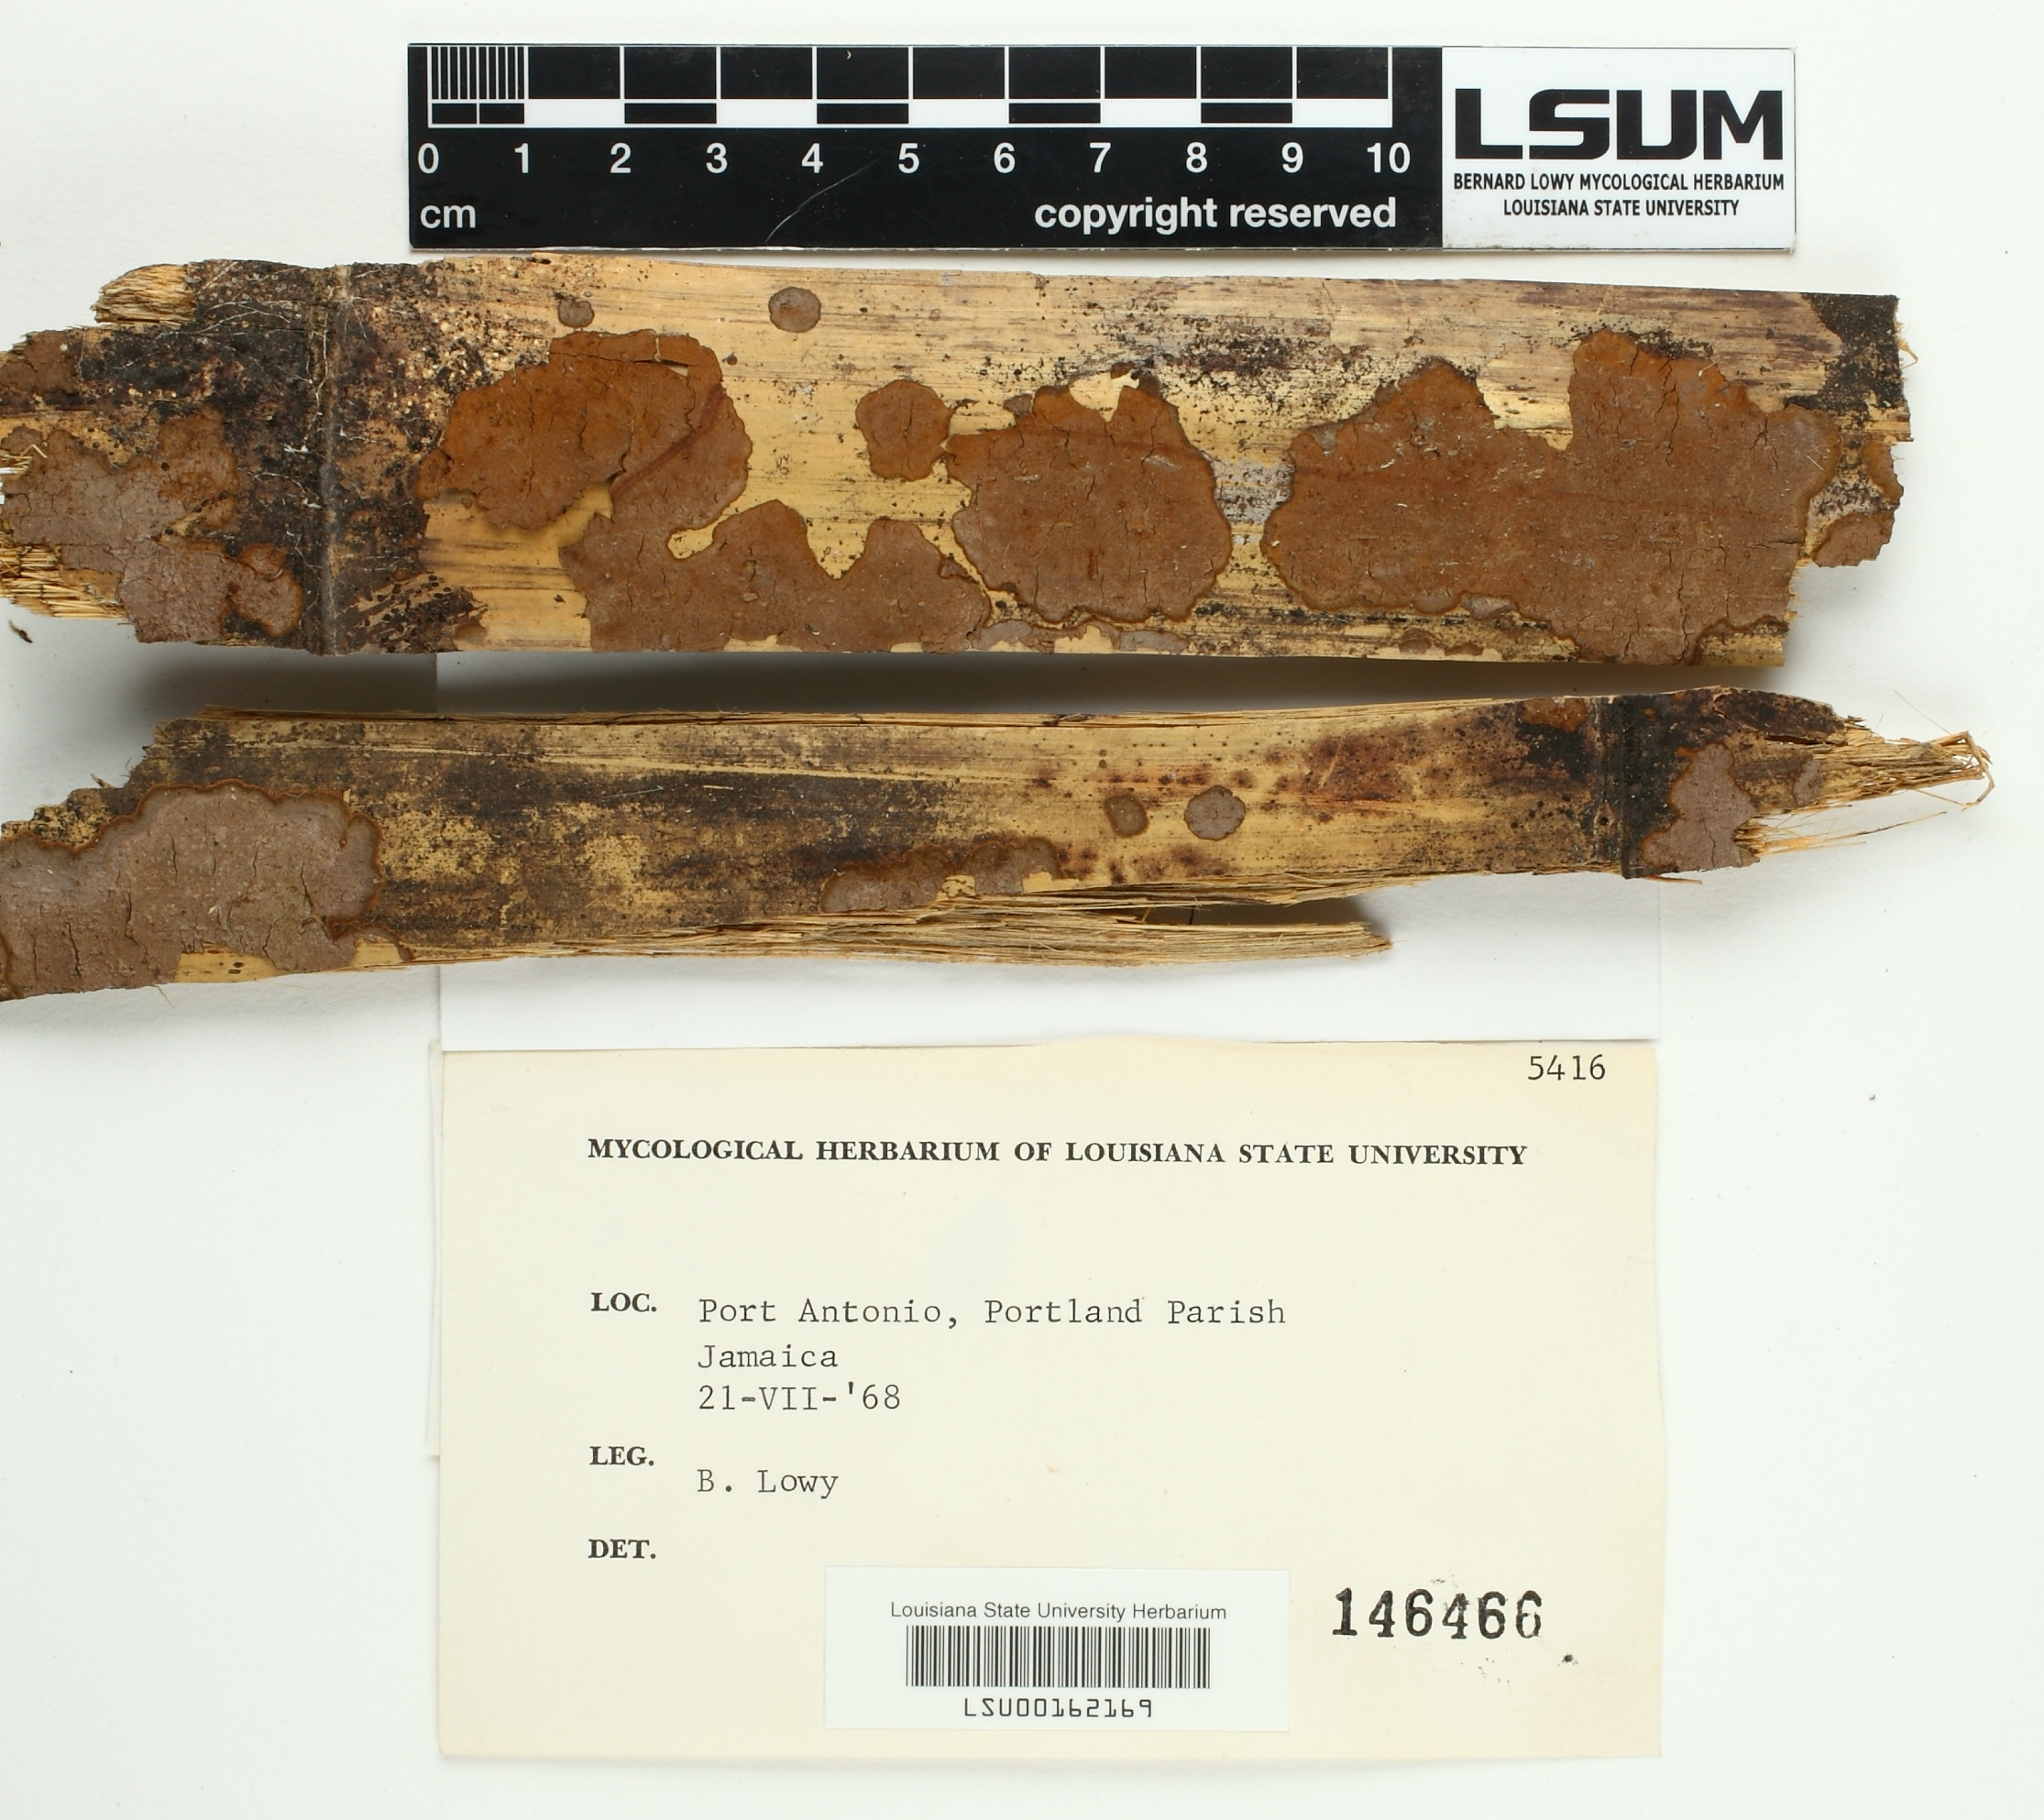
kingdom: Fungi
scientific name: Fungi
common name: Fungi
